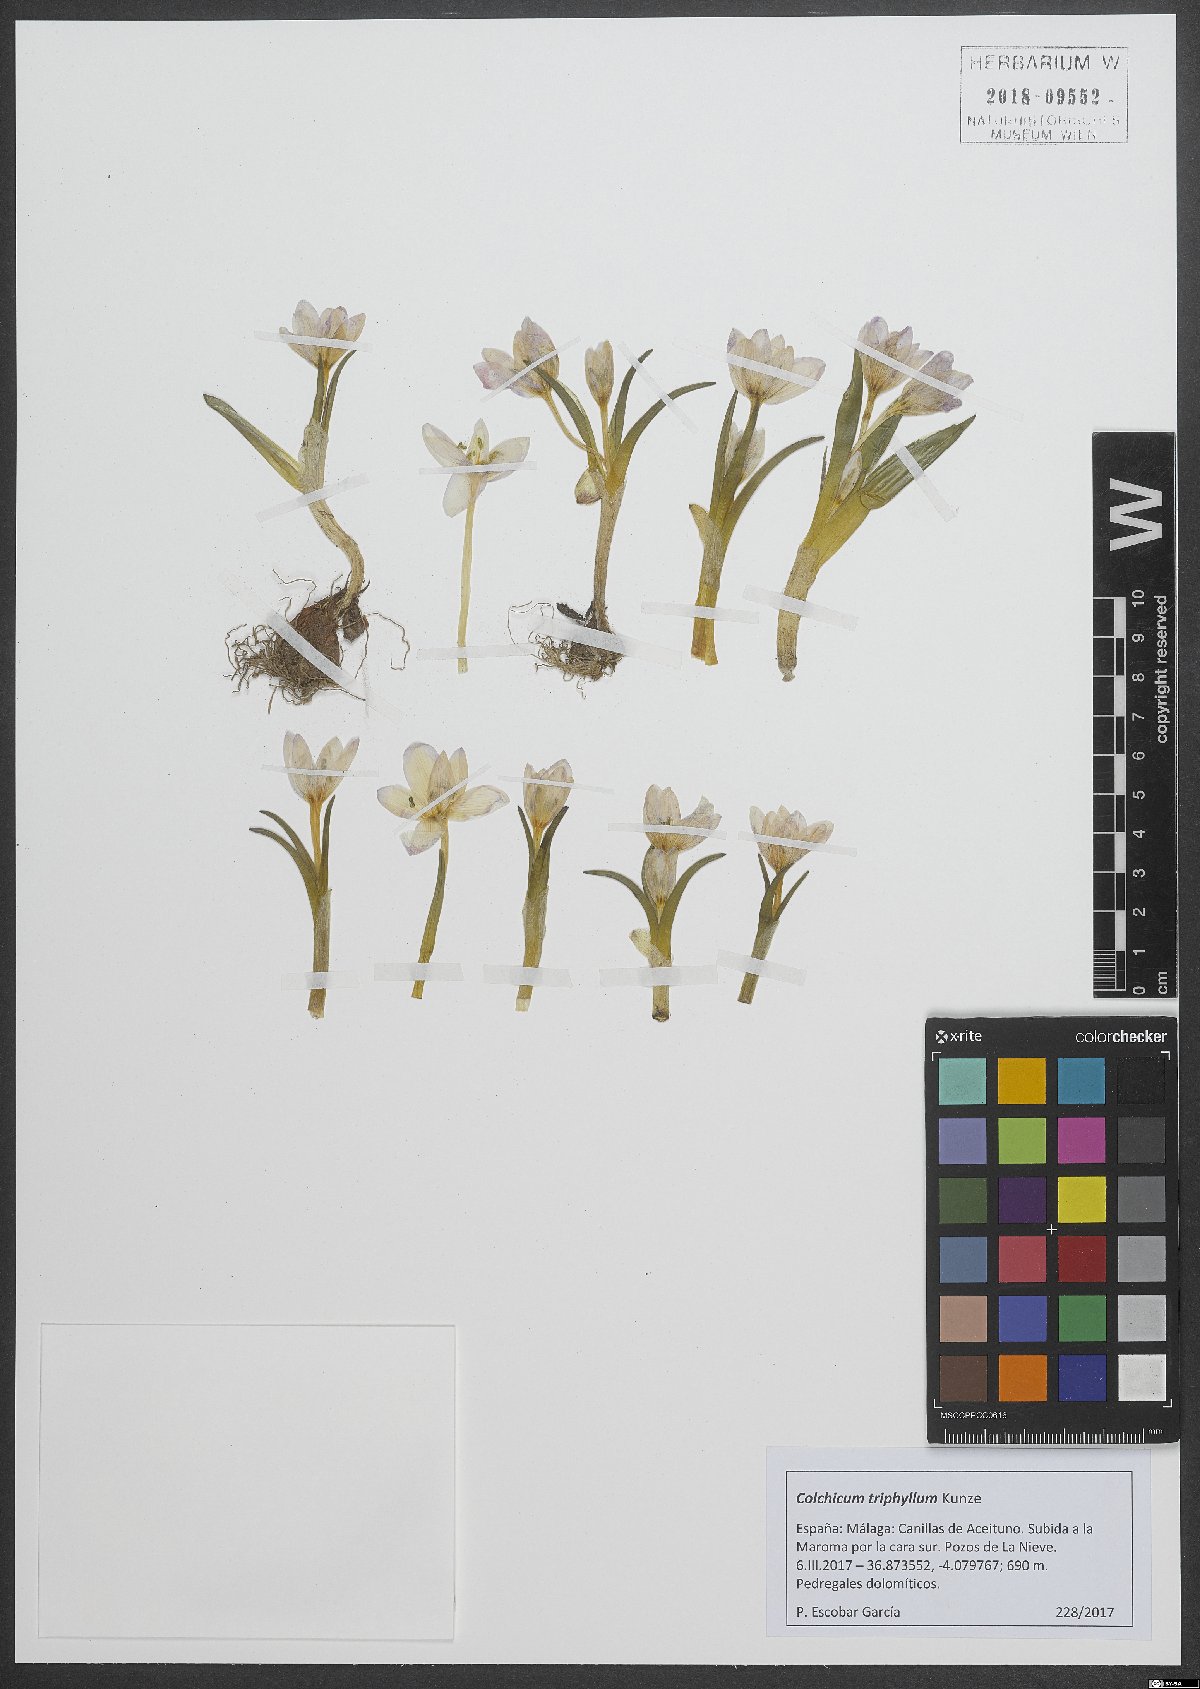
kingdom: Plantae
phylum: Tracheophyta
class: Liliopsida
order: Liliales
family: Colchicaceae
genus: Colchicum
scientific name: Colchicum triphyllum
